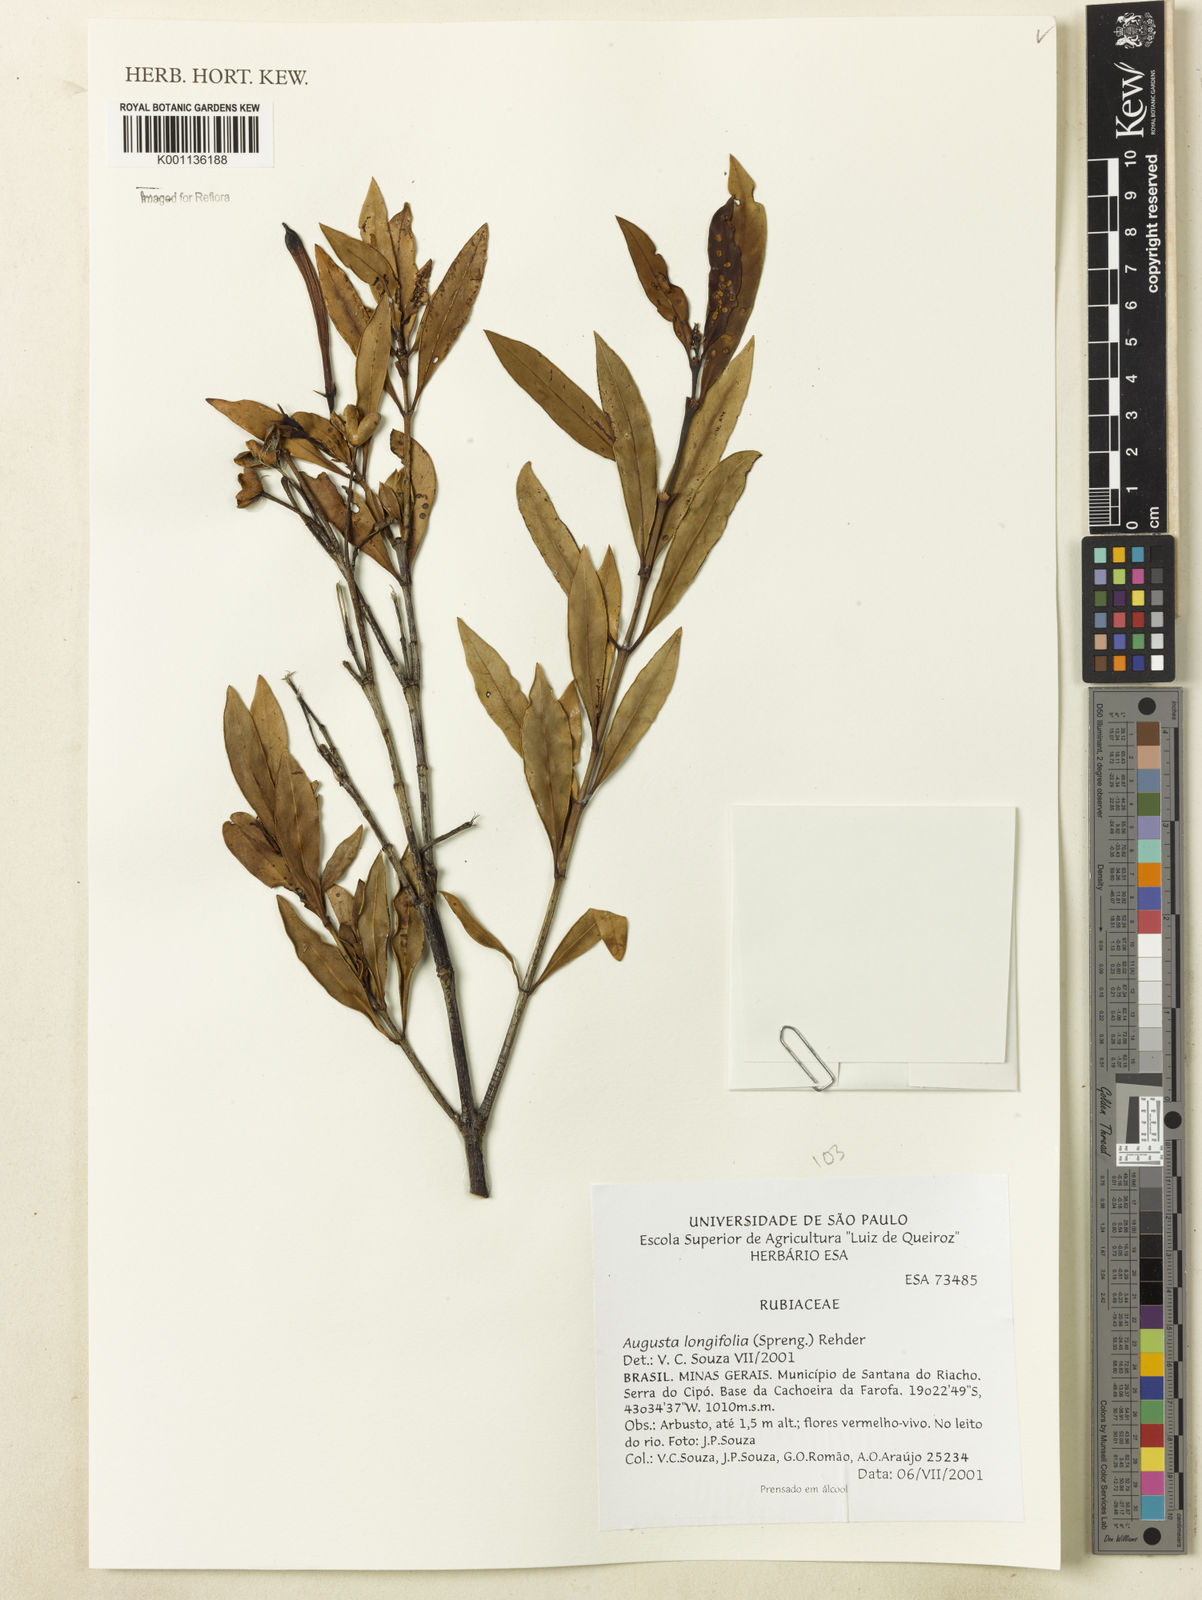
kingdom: Plantae
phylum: Tracheophyta
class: Magnoliopsida
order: Gentianales
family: Rubiaceae
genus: Augusta
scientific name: Augusta longifolia
